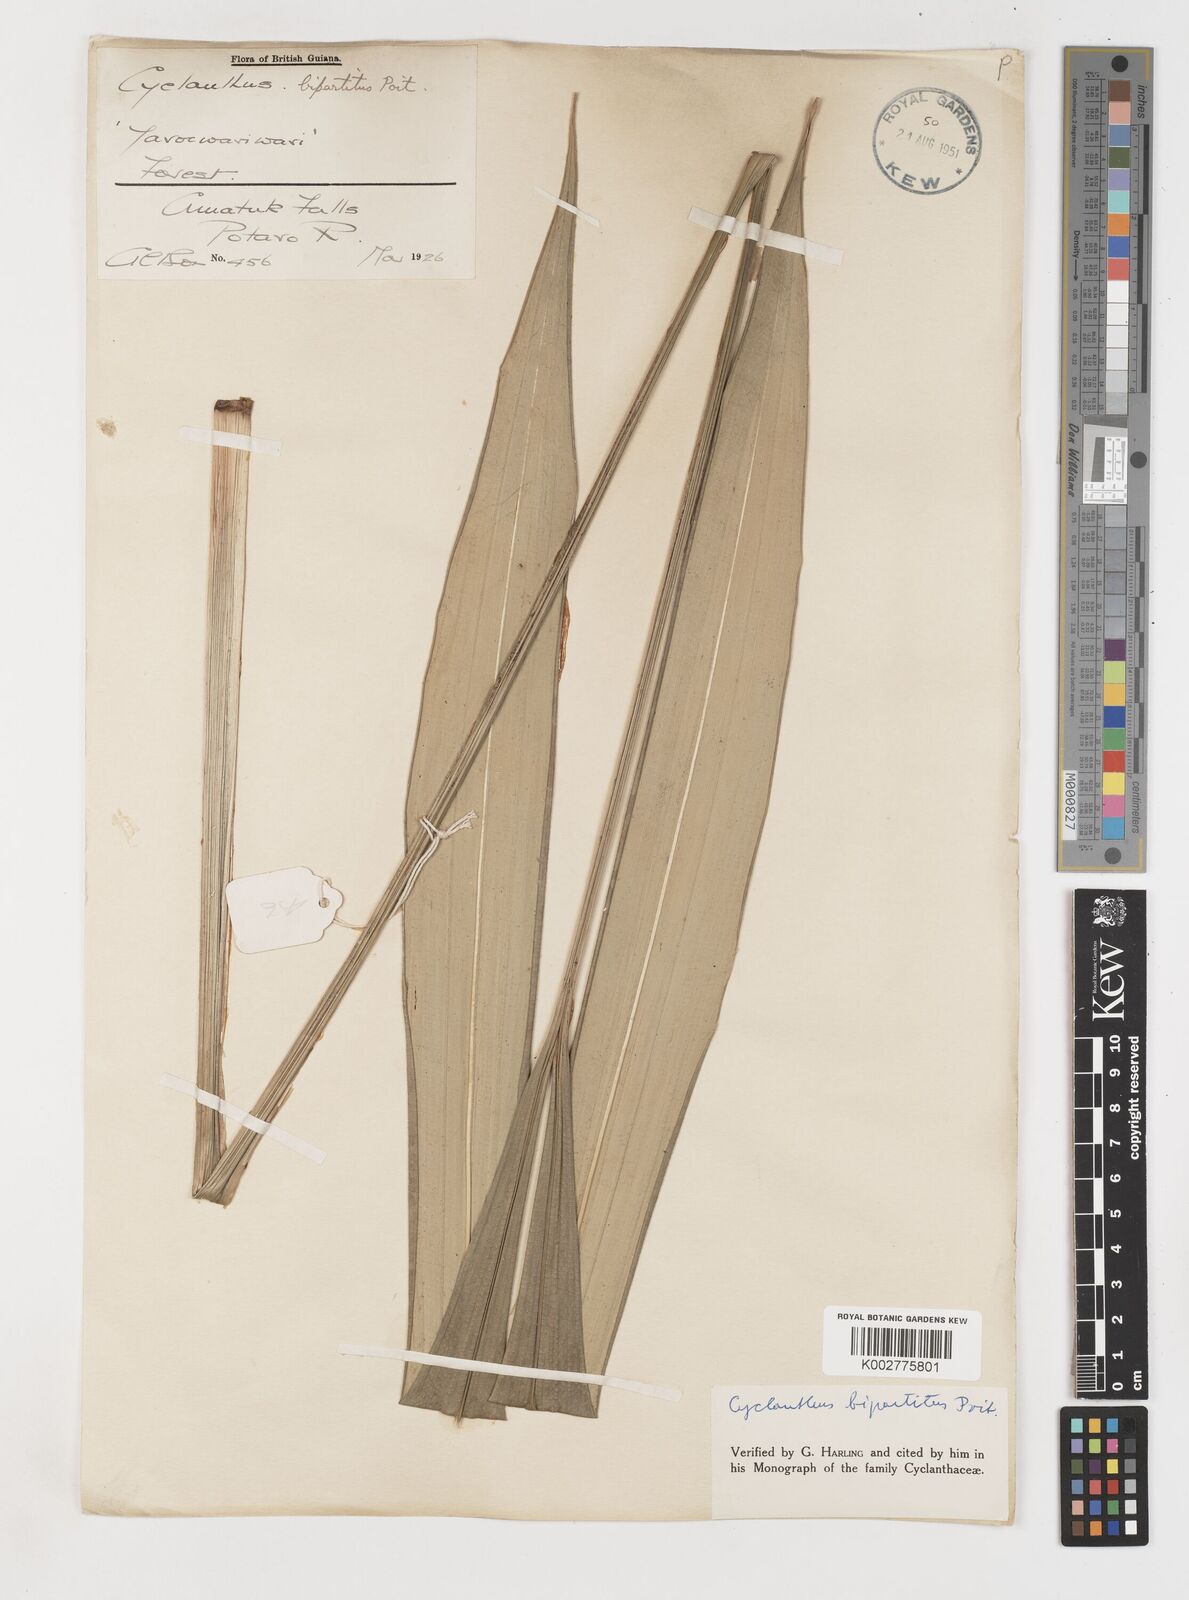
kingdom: Plantae
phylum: Tracheophyta
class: Liliopsida
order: Pandanales
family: Cyclanthaceae
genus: Cyclanthus
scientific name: Cyclanthus bipartitus
